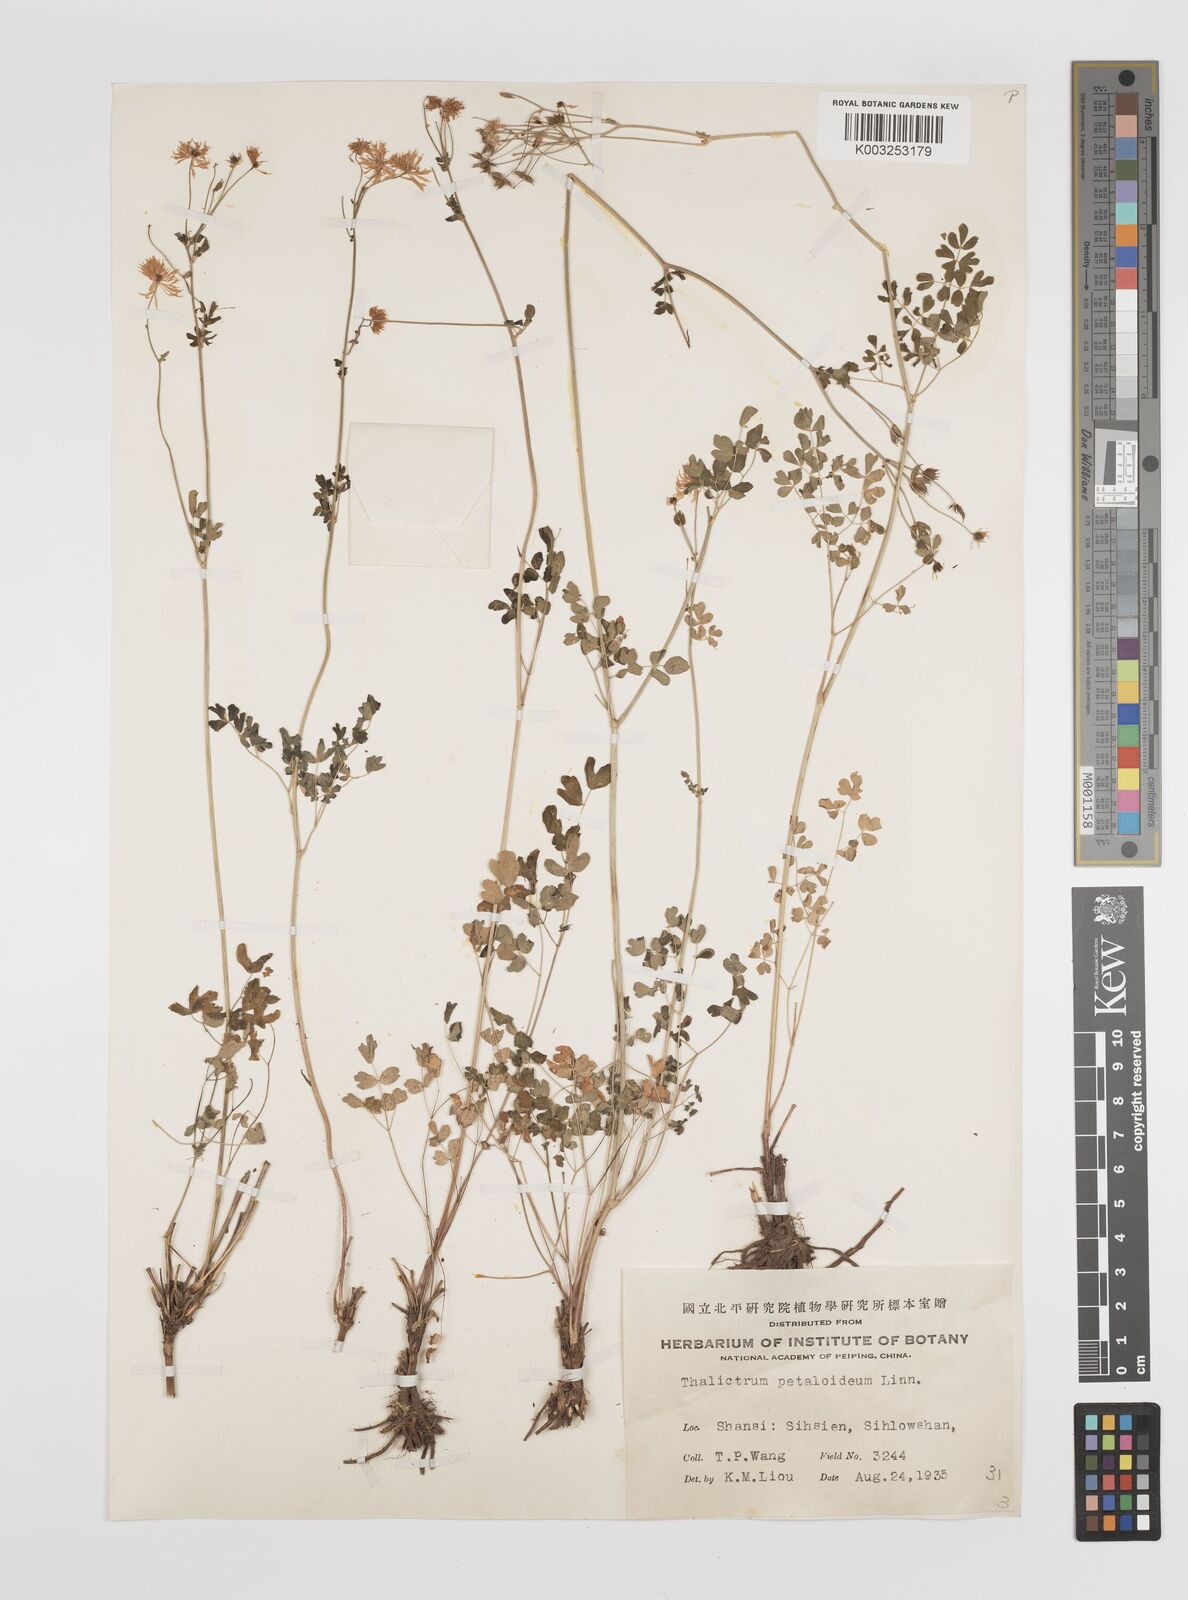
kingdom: Plantae
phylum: Tracheophyta
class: Magnoliopsida
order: Ranunculales
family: Ranunculaceae
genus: Thalictrum
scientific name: Thalictrum petaloideum
